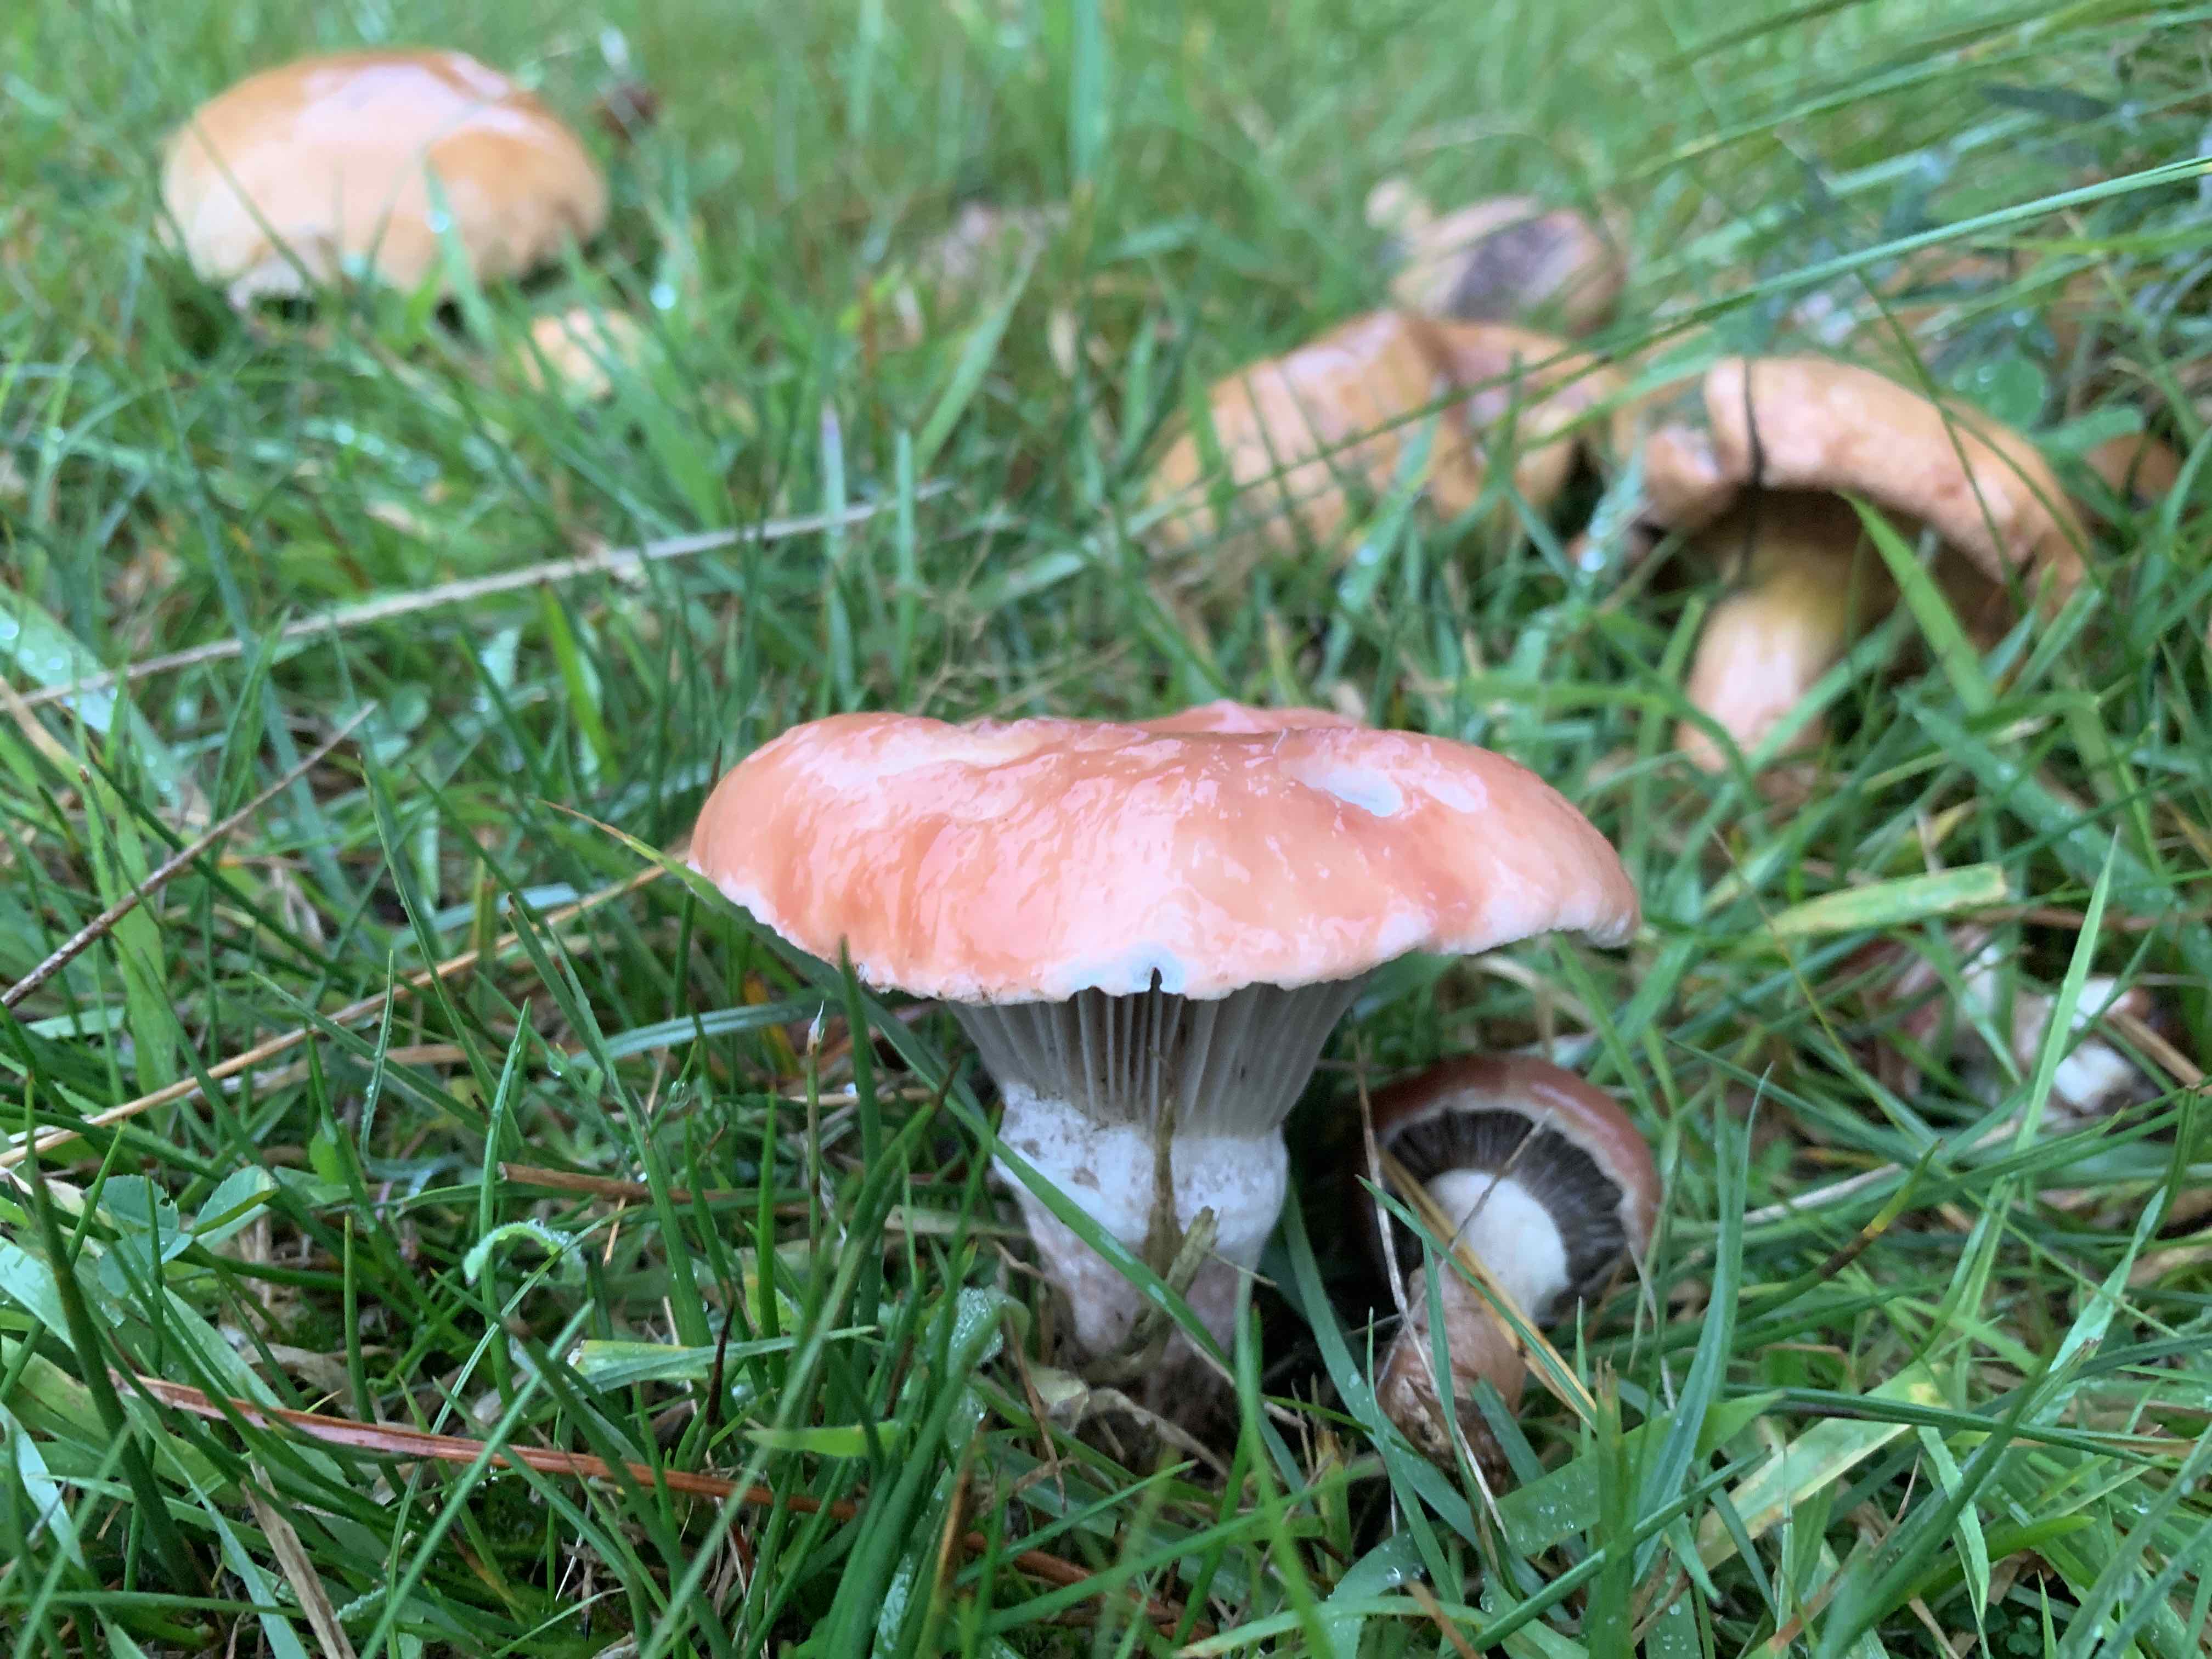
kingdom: Fungi
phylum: Basidiomycota
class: Agaricomycetes
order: Boletales
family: Gomphidiaceae
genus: Gomphidius
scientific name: Gomphidius roseus
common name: rosenrød slimslør
